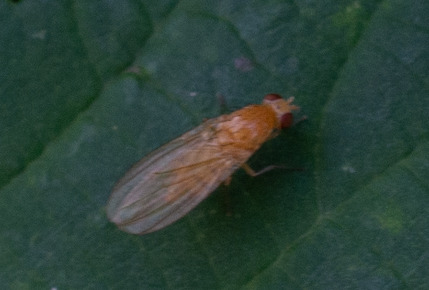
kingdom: Animalia
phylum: Arthropoda
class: Insecta
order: Diptera
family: Lauxaniidae
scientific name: Lauxaniidae
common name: Løvfluer
